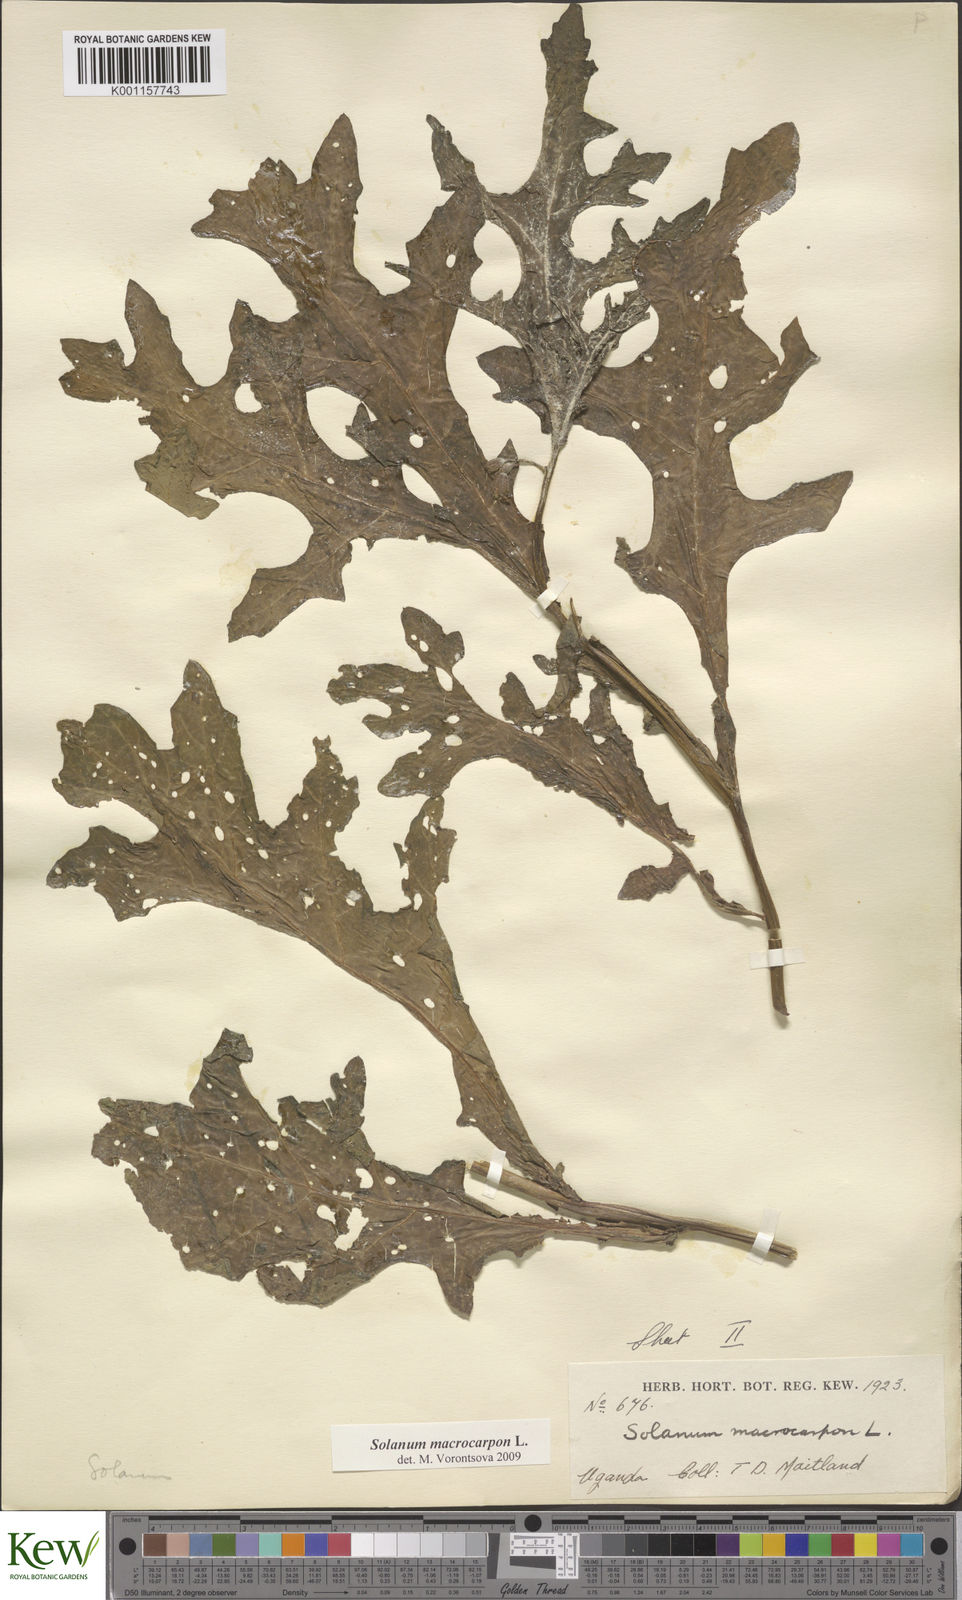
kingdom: Plantae
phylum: Tracheophyta
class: Magnoliopsida
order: Solanales
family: Solanaceae
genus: Solanum
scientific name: Solanum macrocarpon
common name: African eggplant
